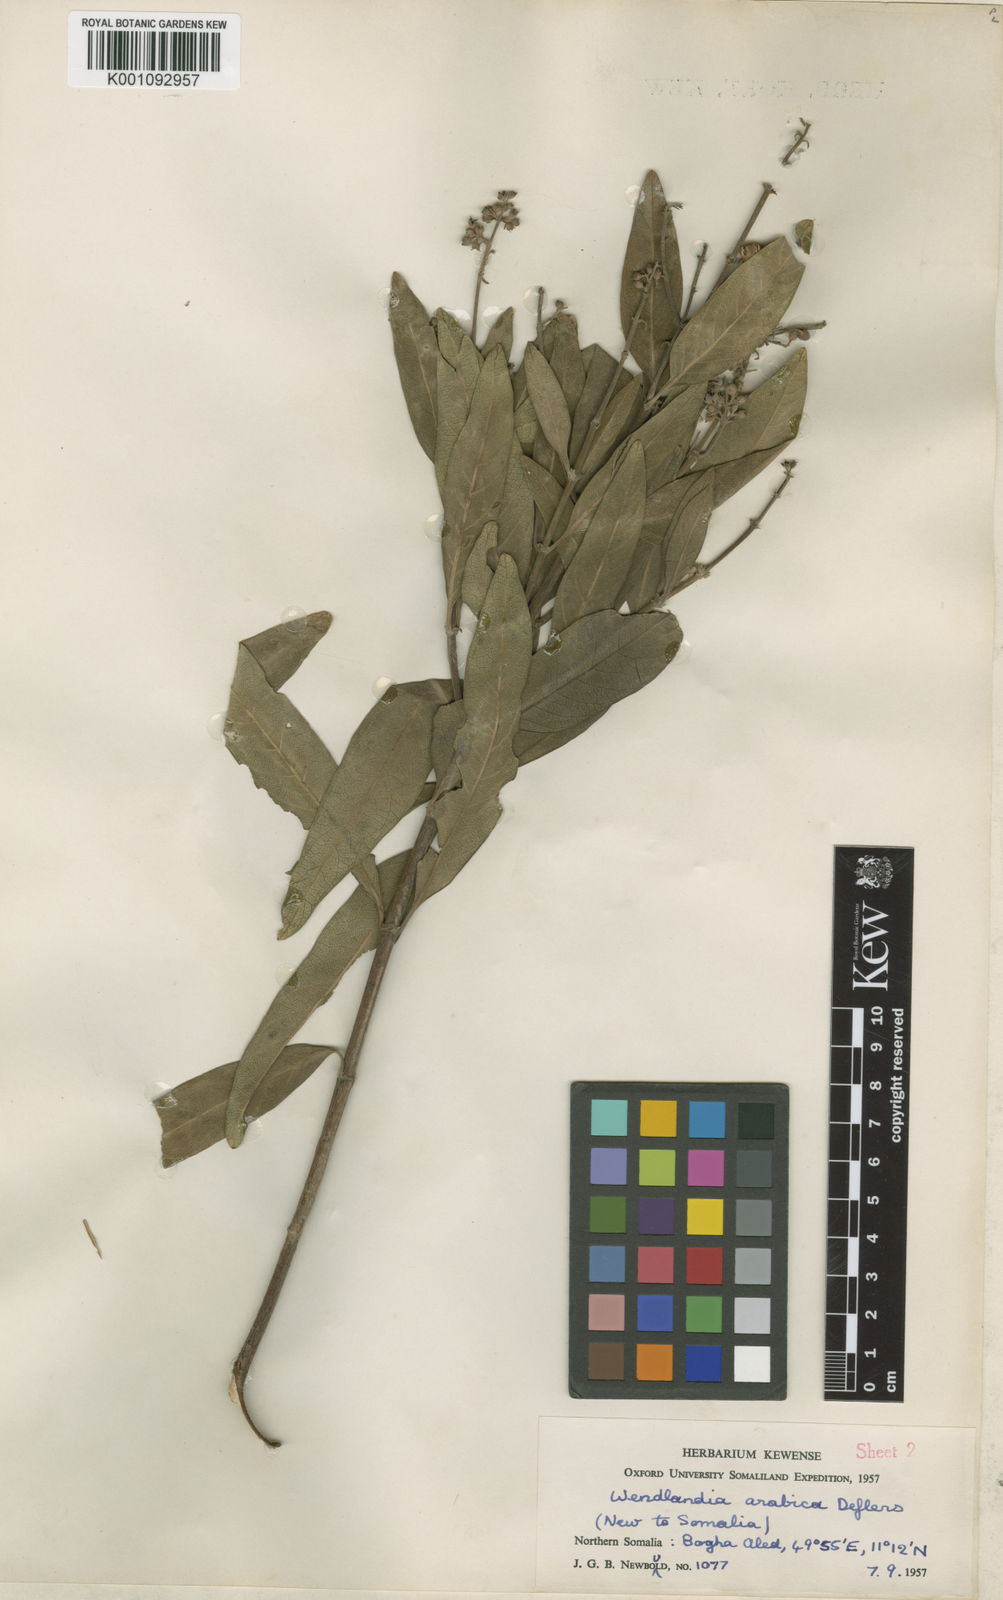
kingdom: Plantae
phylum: Tracheophyta
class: Magnoliopsida
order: Gentianales
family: Rubiaceae
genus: Wendlandia
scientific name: Wendlandia arabica
